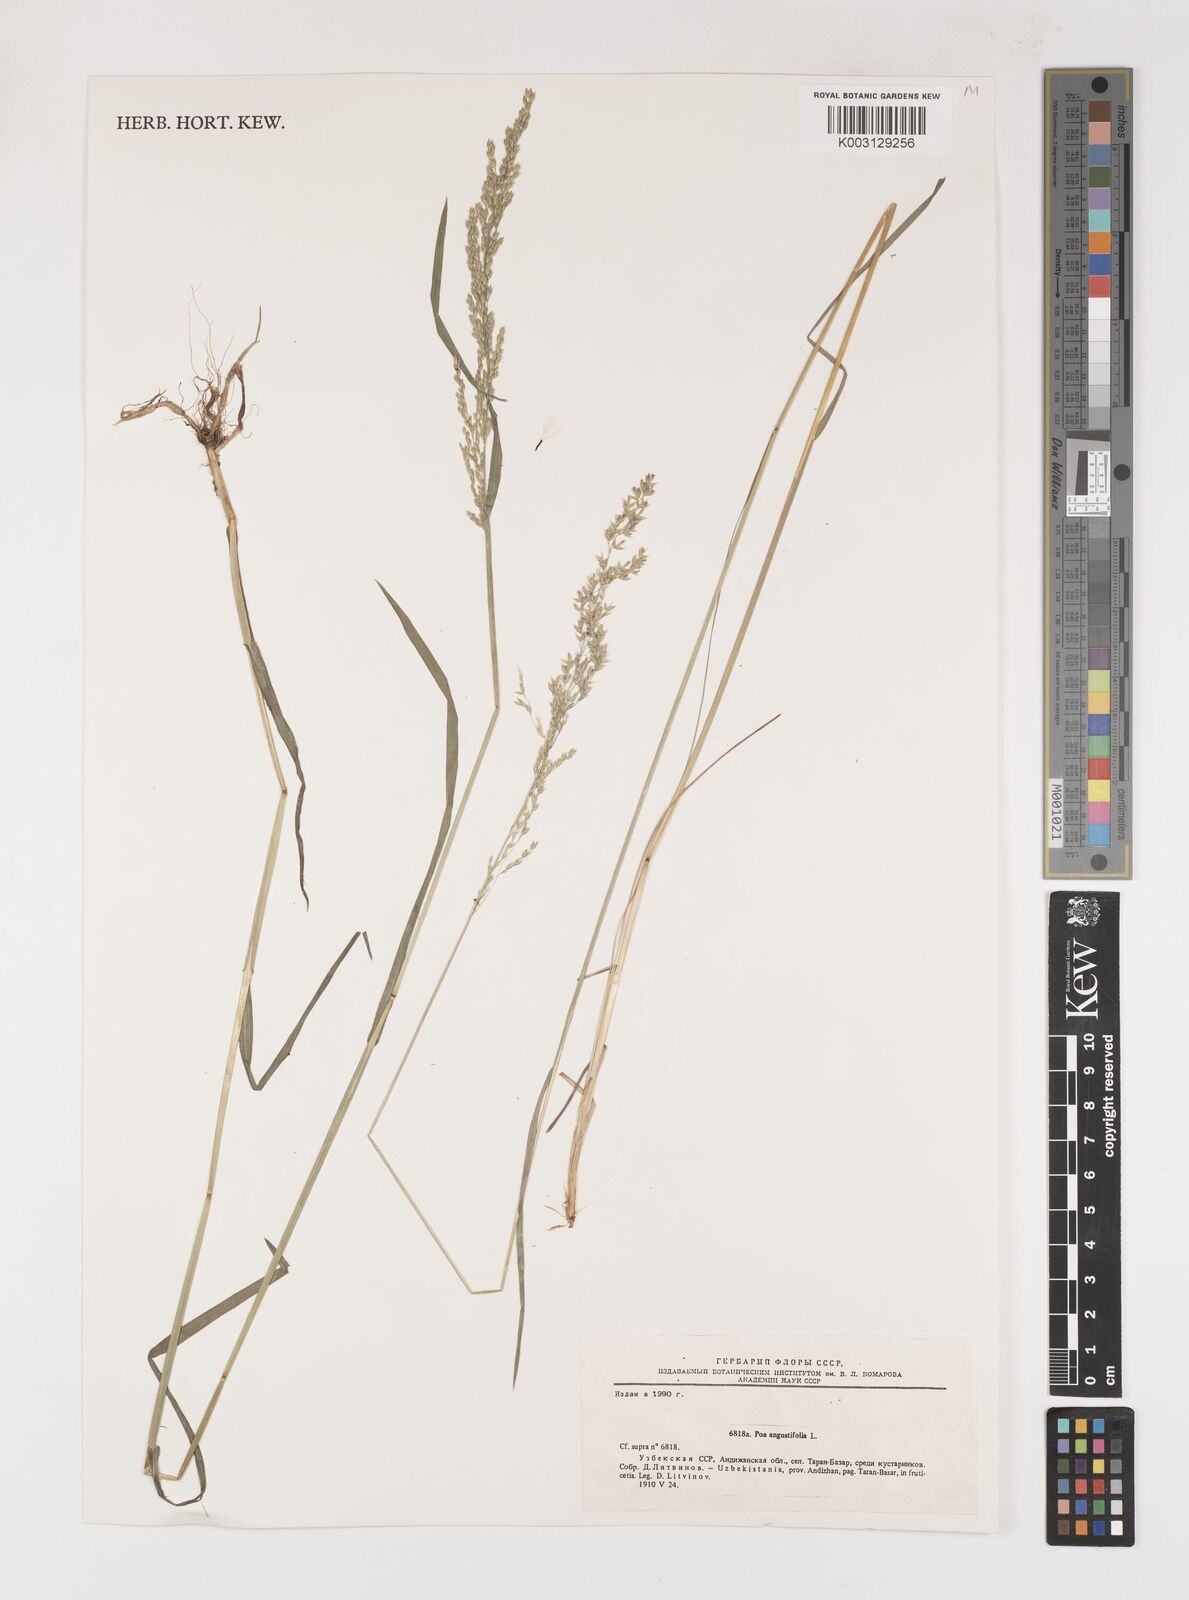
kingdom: Plantae
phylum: Tracheophyta
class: Liliopsida
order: Poales
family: Poaceae
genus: Poa
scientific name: Poa angustifolia
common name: Narrow-leaved meadow-grass
